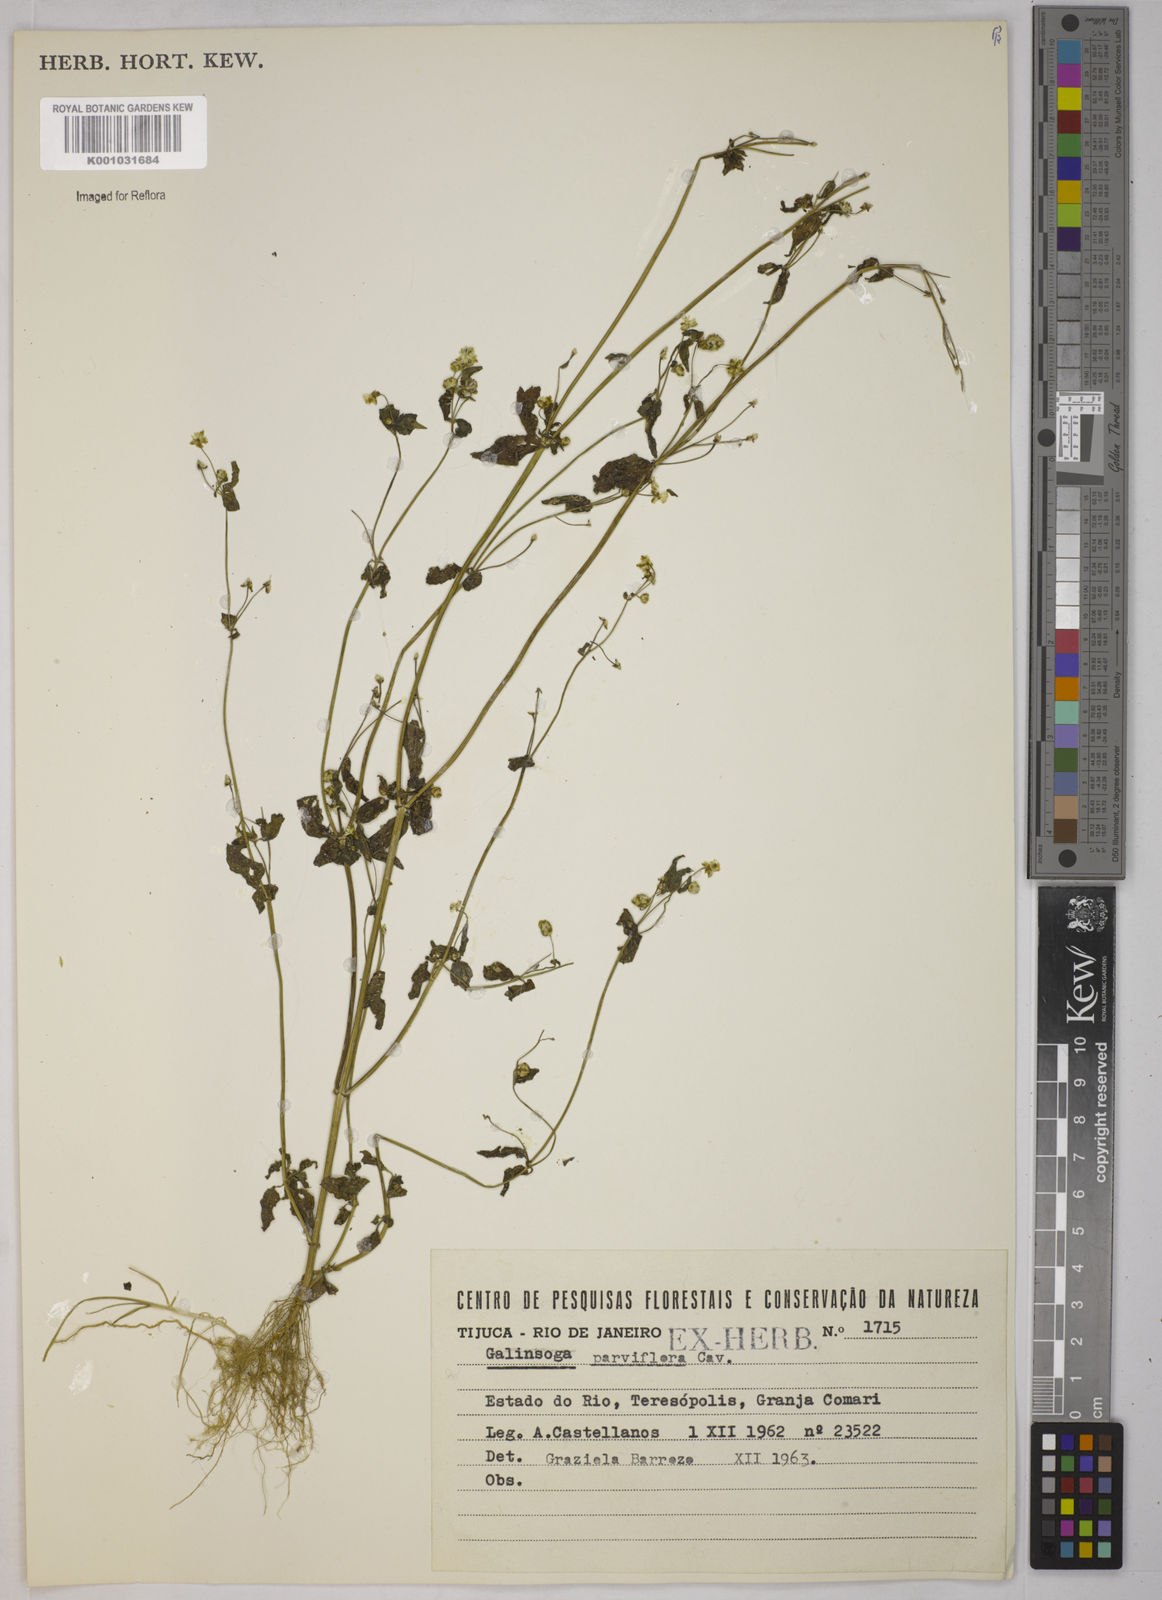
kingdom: Plantae
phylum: Tracheophyta
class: Magnoliopsida
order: Asterales
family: Asteraceae
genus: Galinsoga
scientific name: Galinsoga parviflora
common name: Gallant soldier
